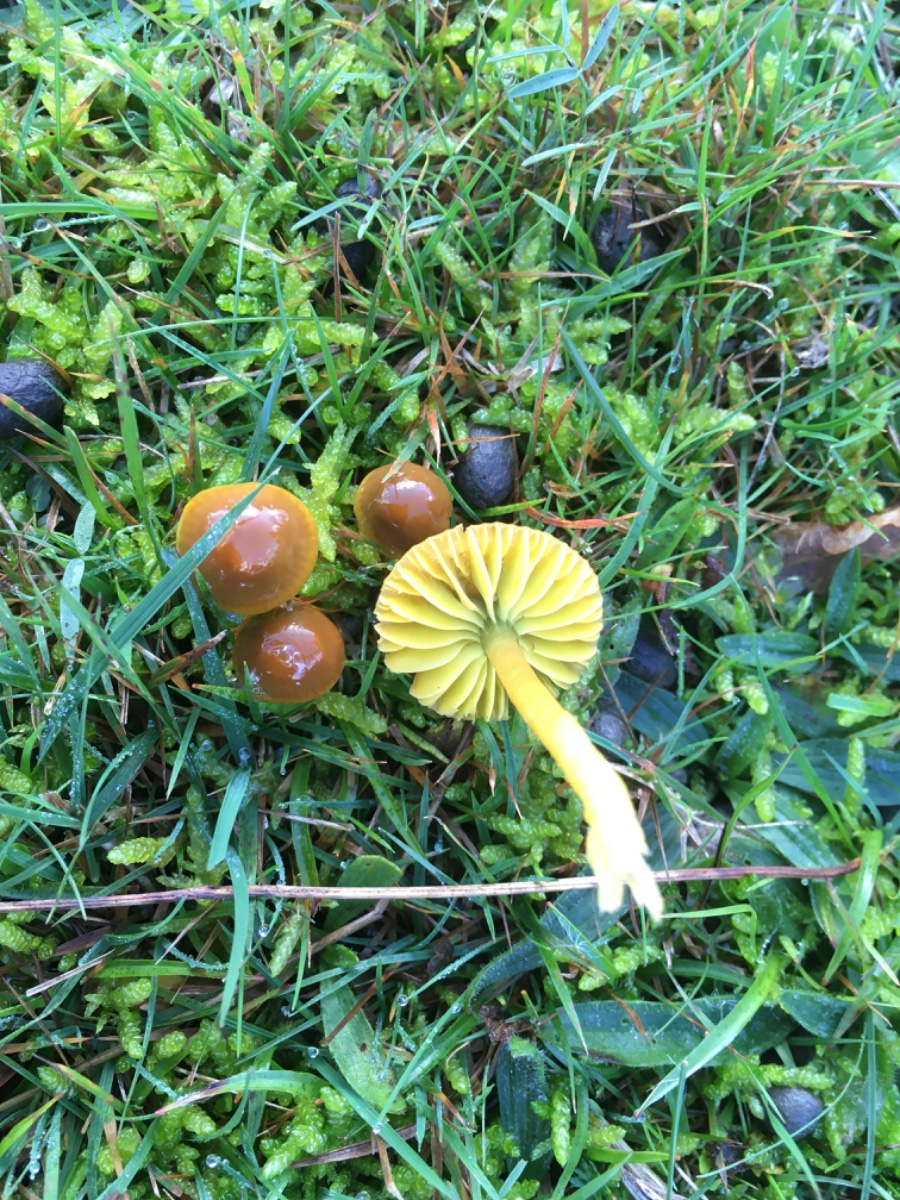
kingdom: Fungi
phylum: Basidiomycota
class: Agaricomycetes
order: Agaricales
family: Hygrophoraceae
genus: Gliophorus
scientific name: Gliophorus psittacinus
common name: papegøje-vokshat
